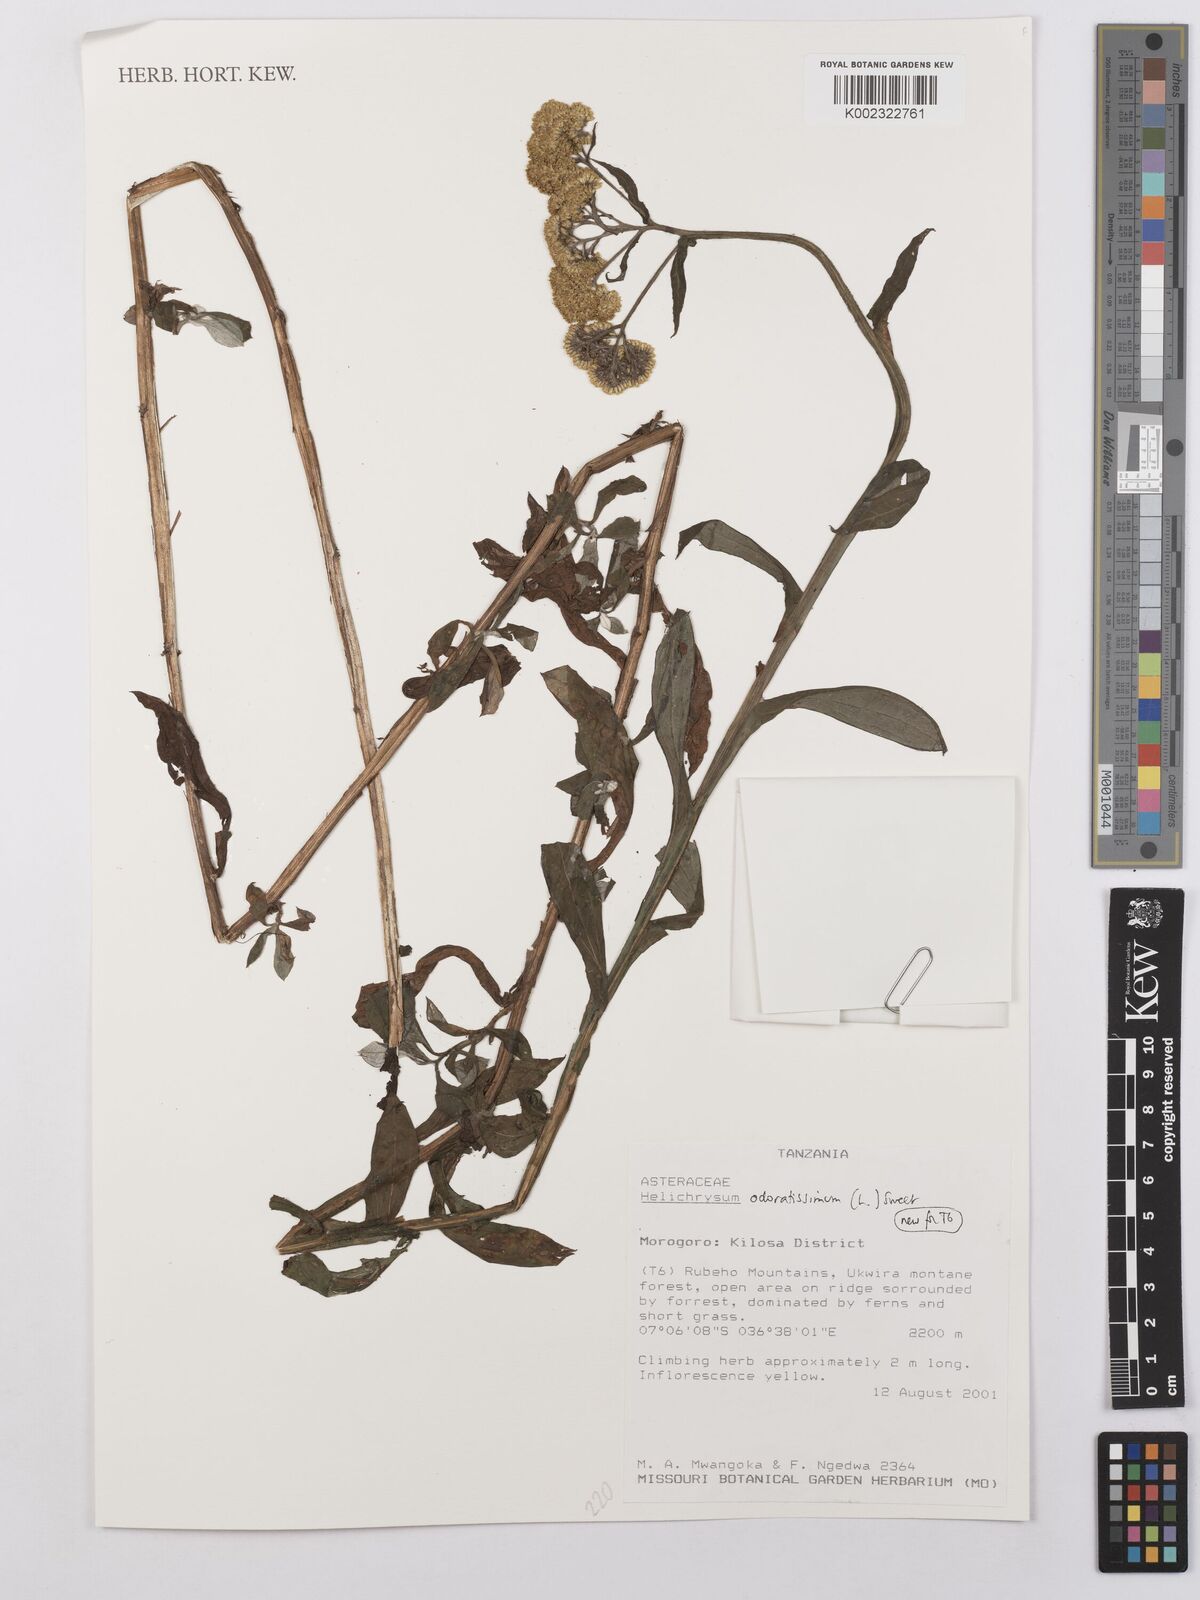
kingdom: Plantae
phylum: Tracheophyta
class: Magnoliopsida
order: Asterales
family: Asteraceae
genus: Helichrysum
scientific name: Helichrysum odoratissimum
